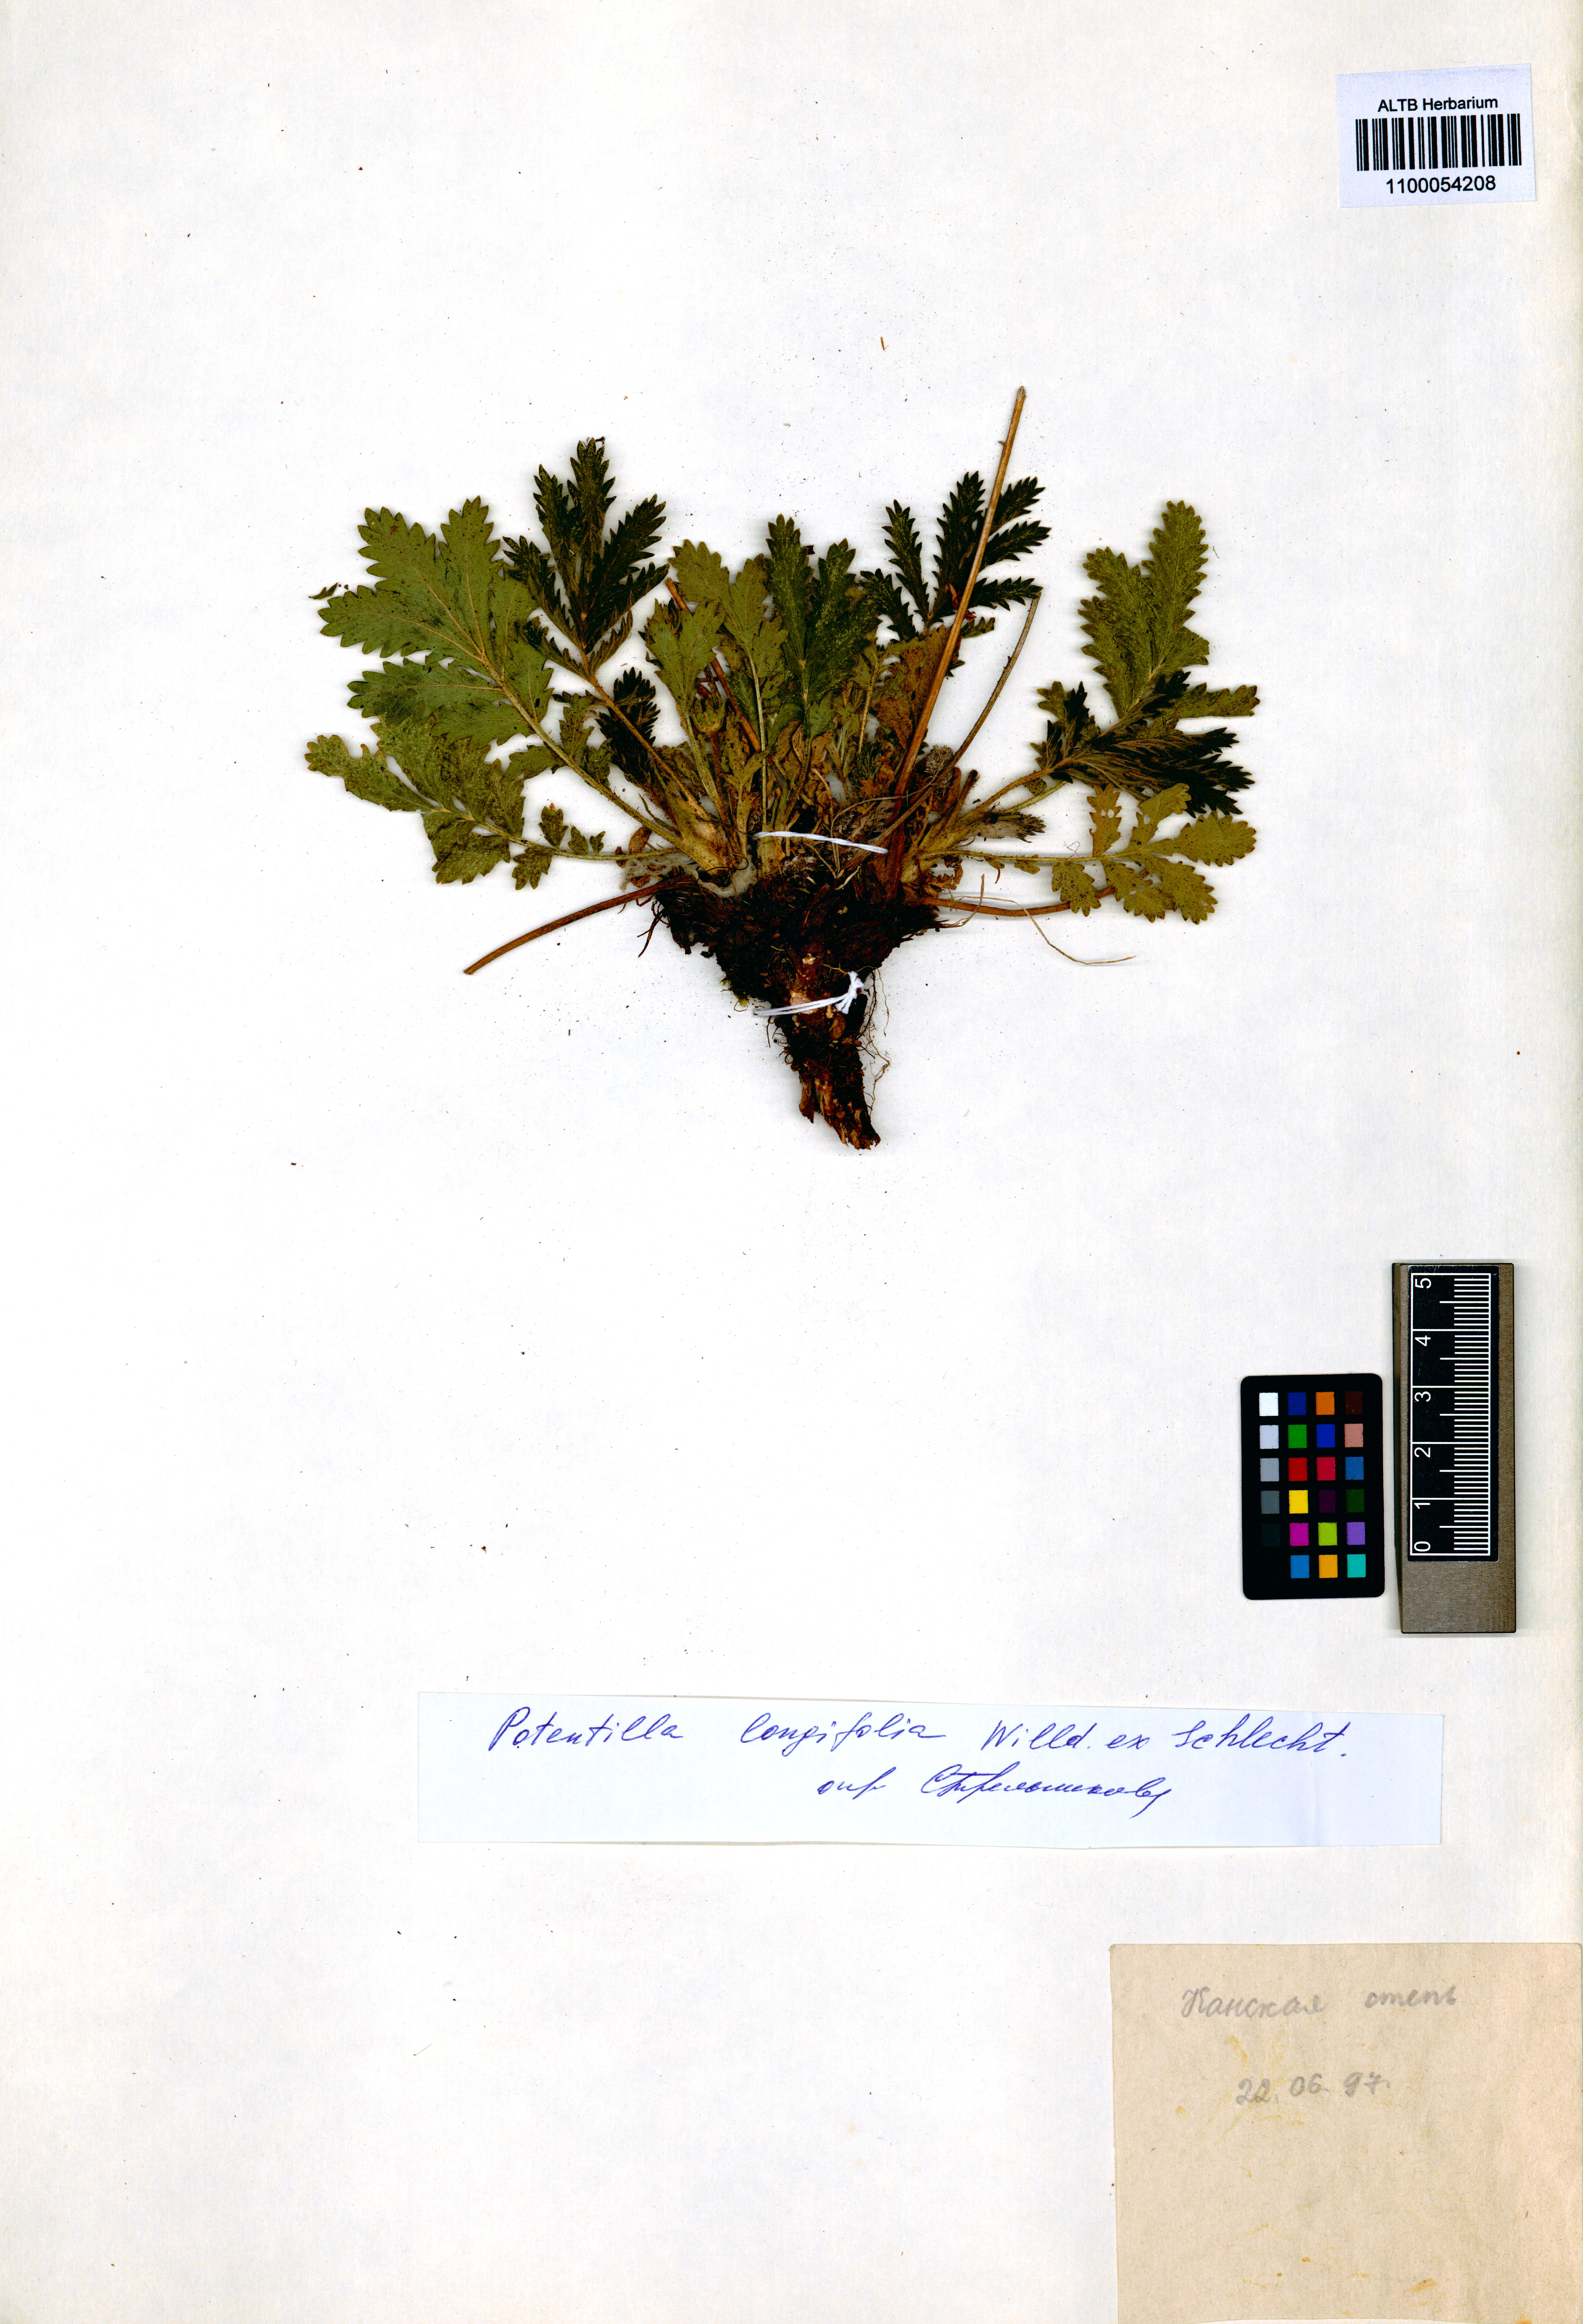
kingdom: Plantae
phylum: Tracheophyta
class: Magnoliopsida
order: Rosales
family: Rosaceae
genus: Potentilla
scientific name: Potentilla longifolia
